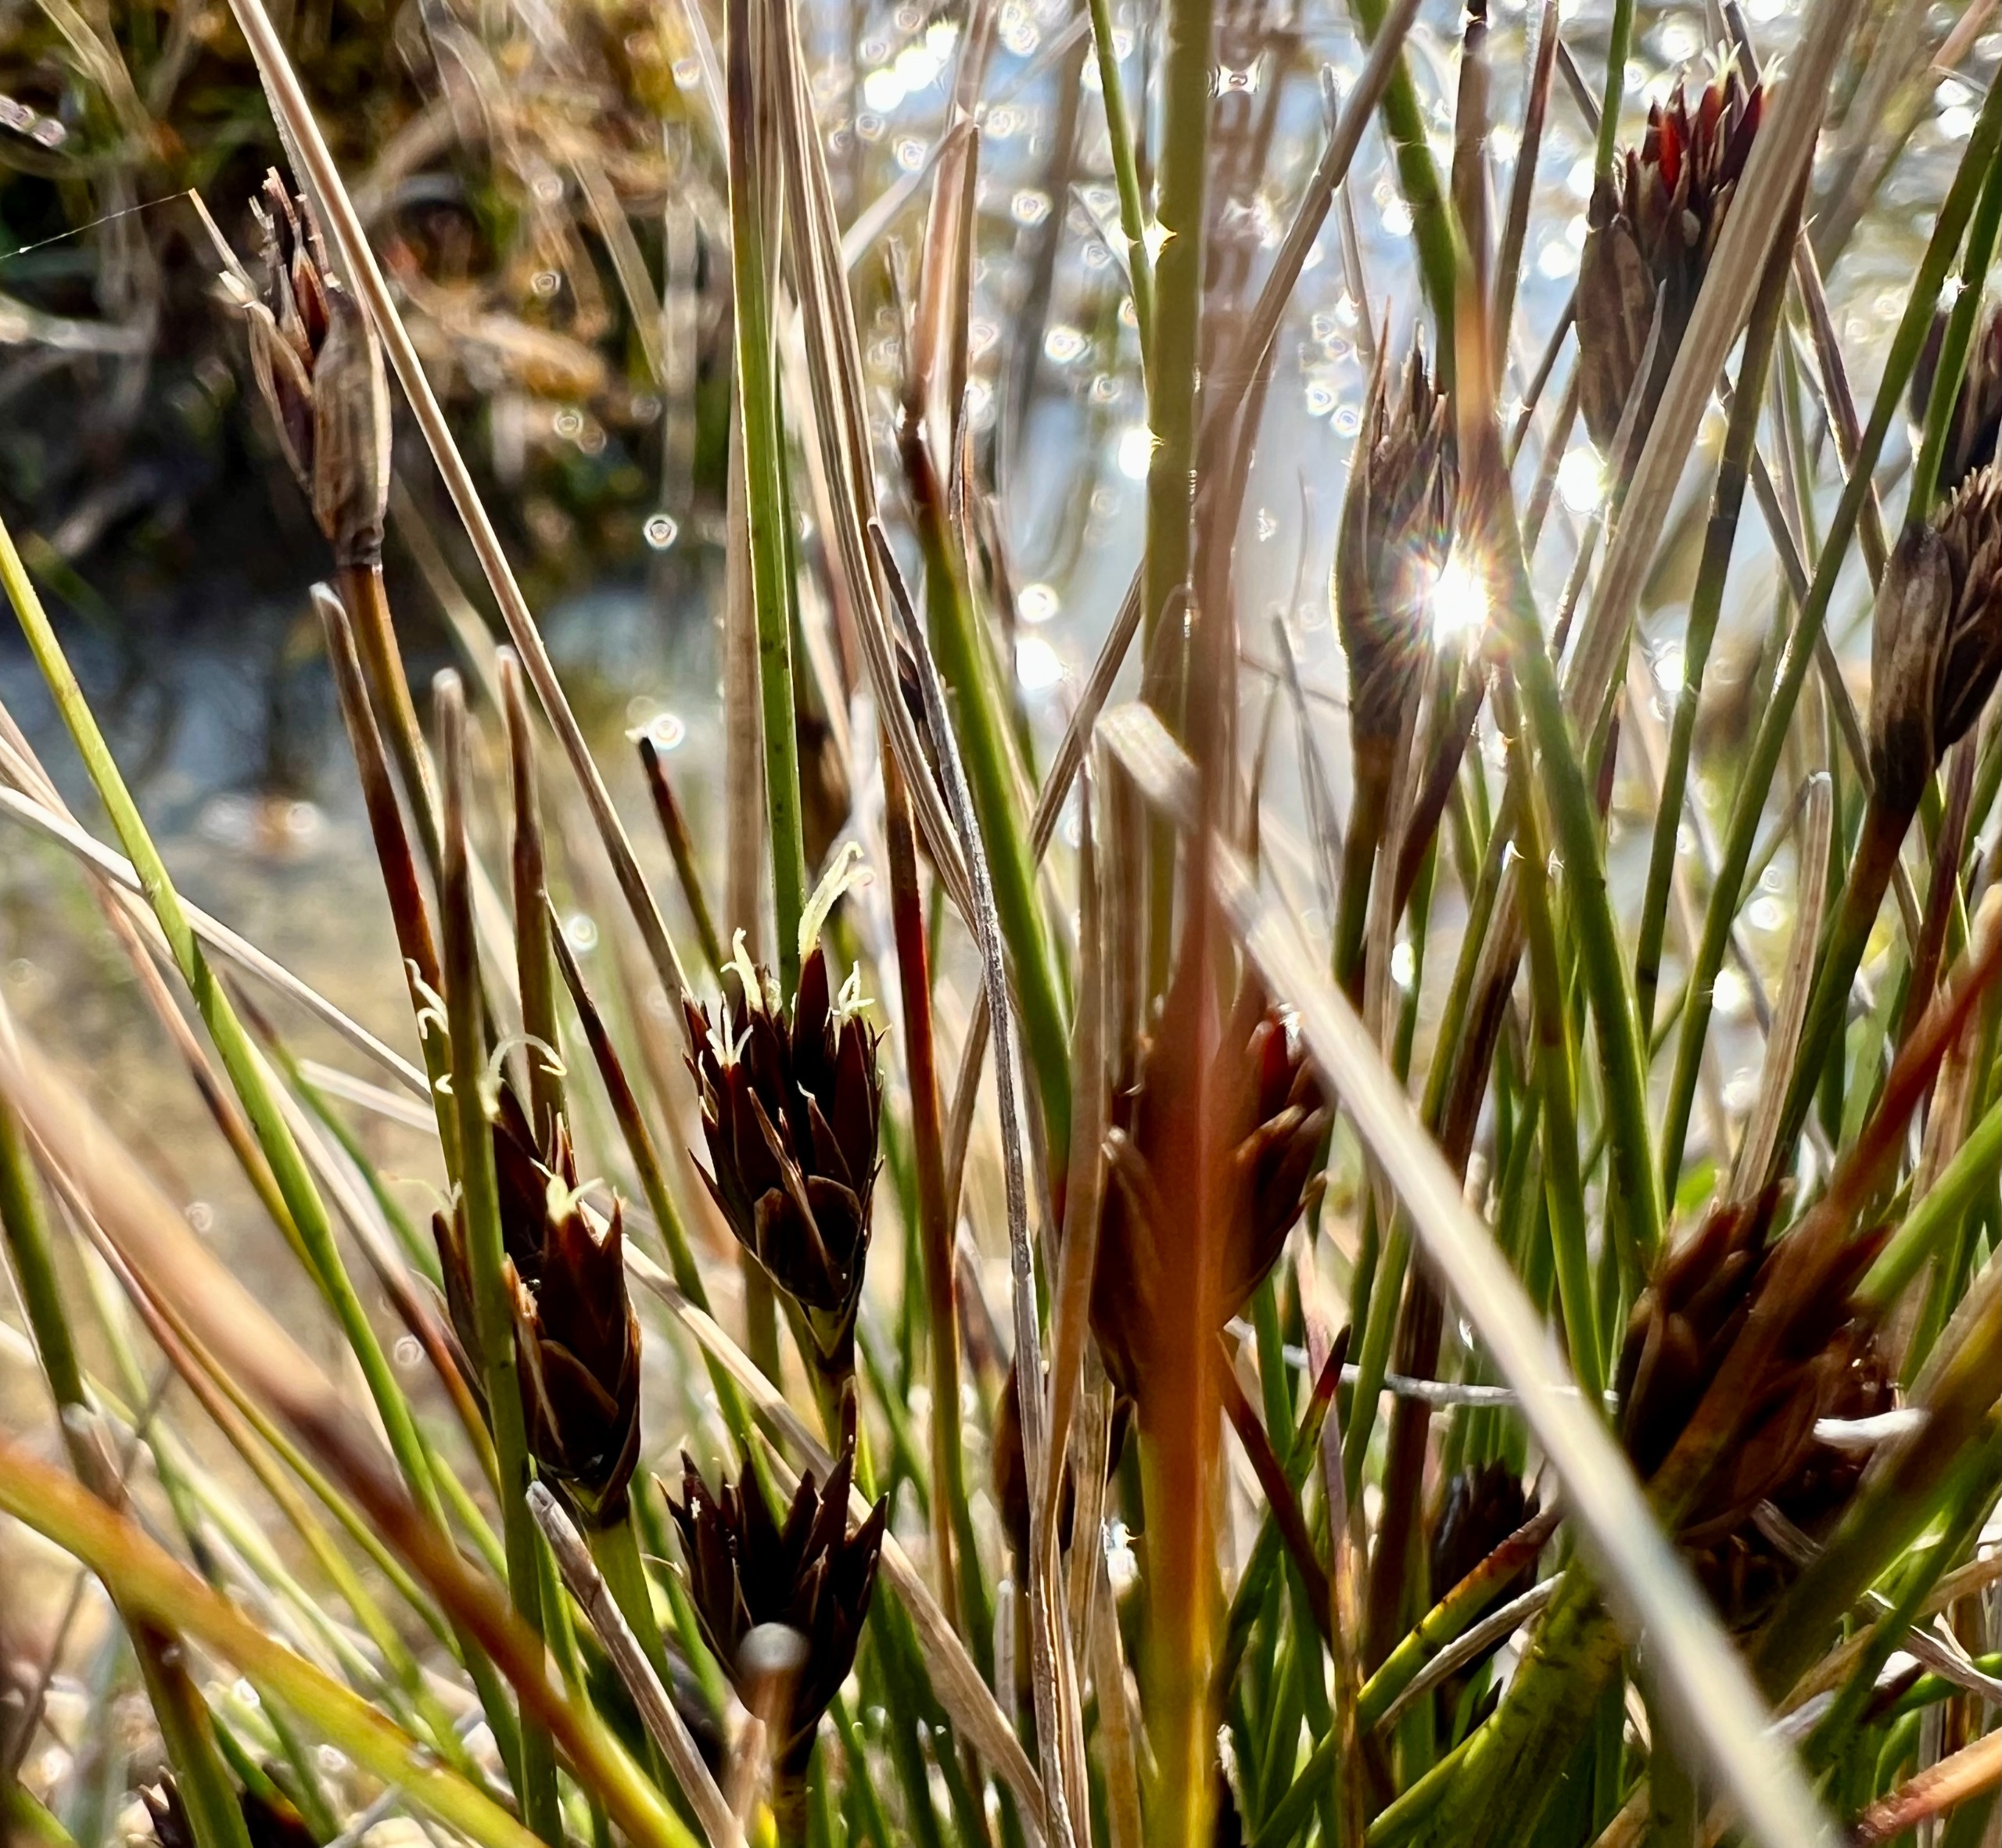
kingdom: Plantae
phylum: Tracheophyta
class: Liliopsida
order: Poales
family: Cyperaceae
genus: Schoenus
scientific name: Schoenus nigricans
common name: Sort skæne
